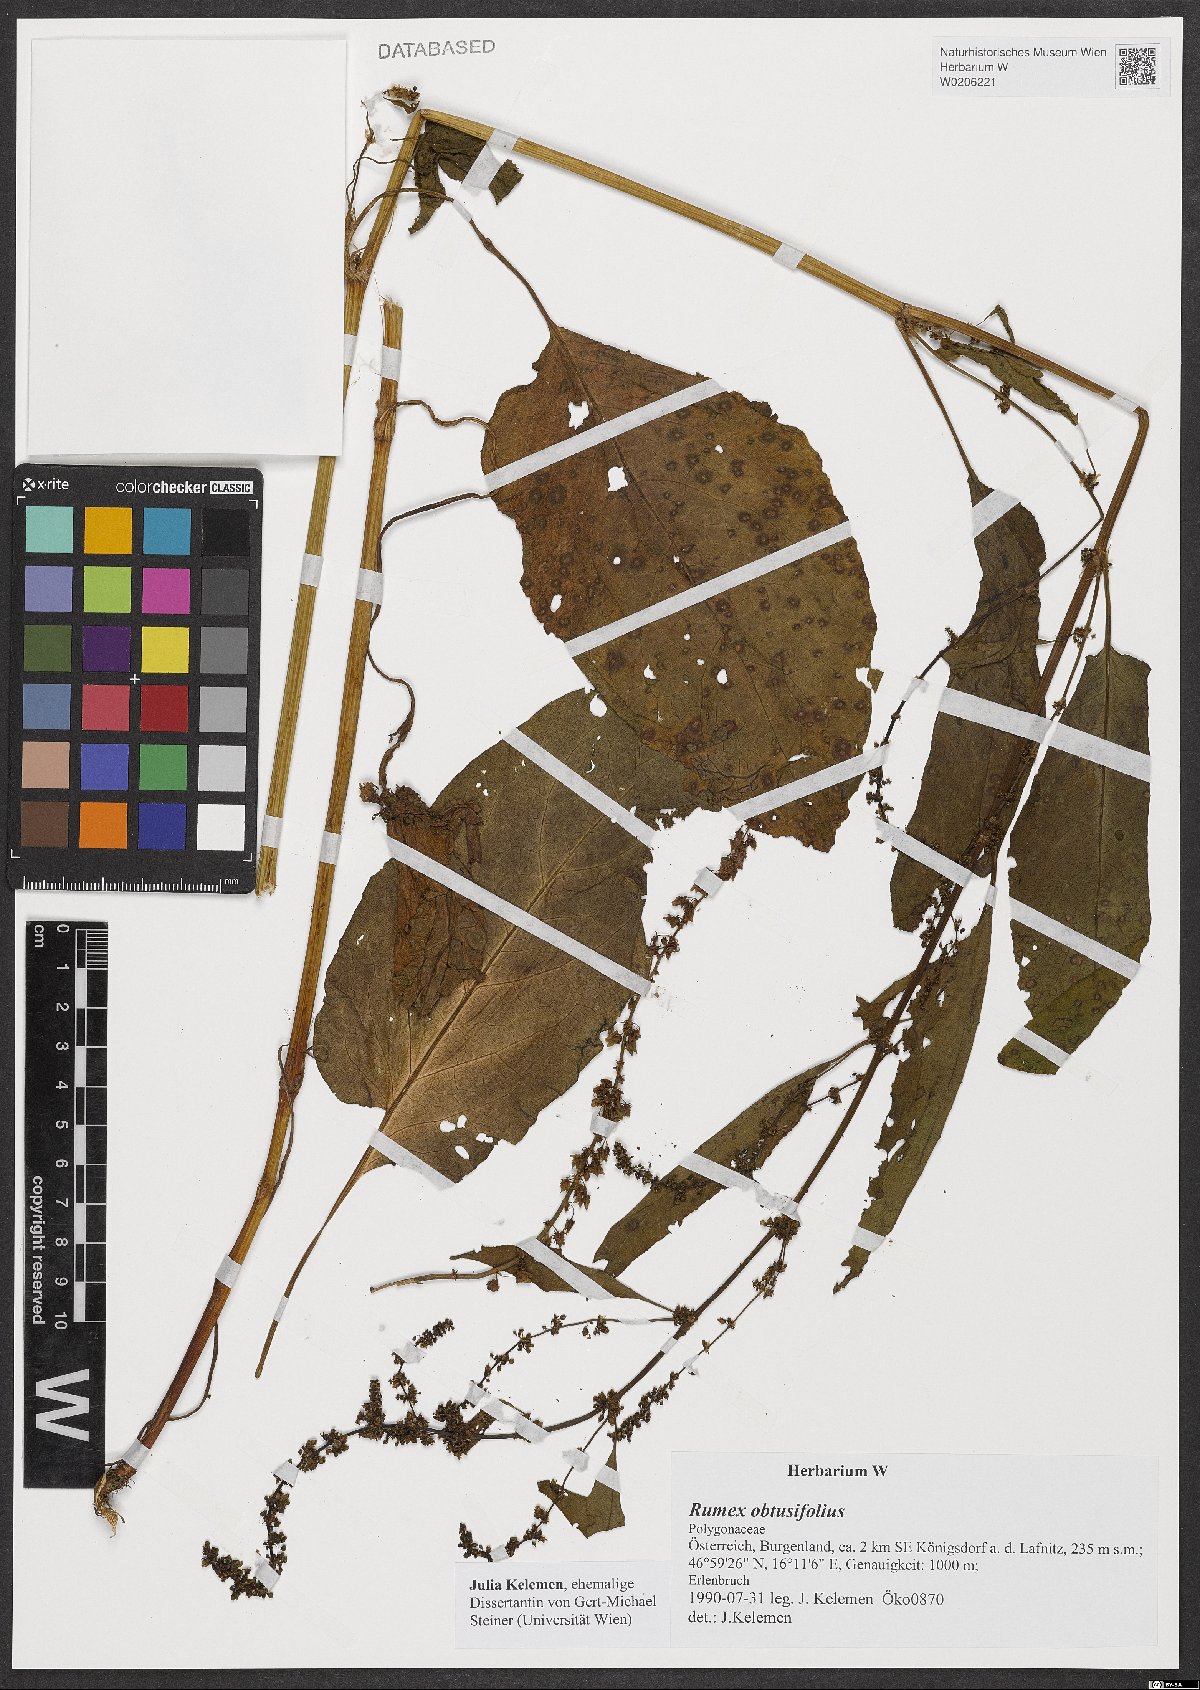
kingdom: Plantae
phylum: Tracheophyta
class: Magnoliopsida
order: Caryophyllales
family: Polygonaceae
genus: Rumex
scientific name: Rumex obtusifolius
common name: Bitter dock
